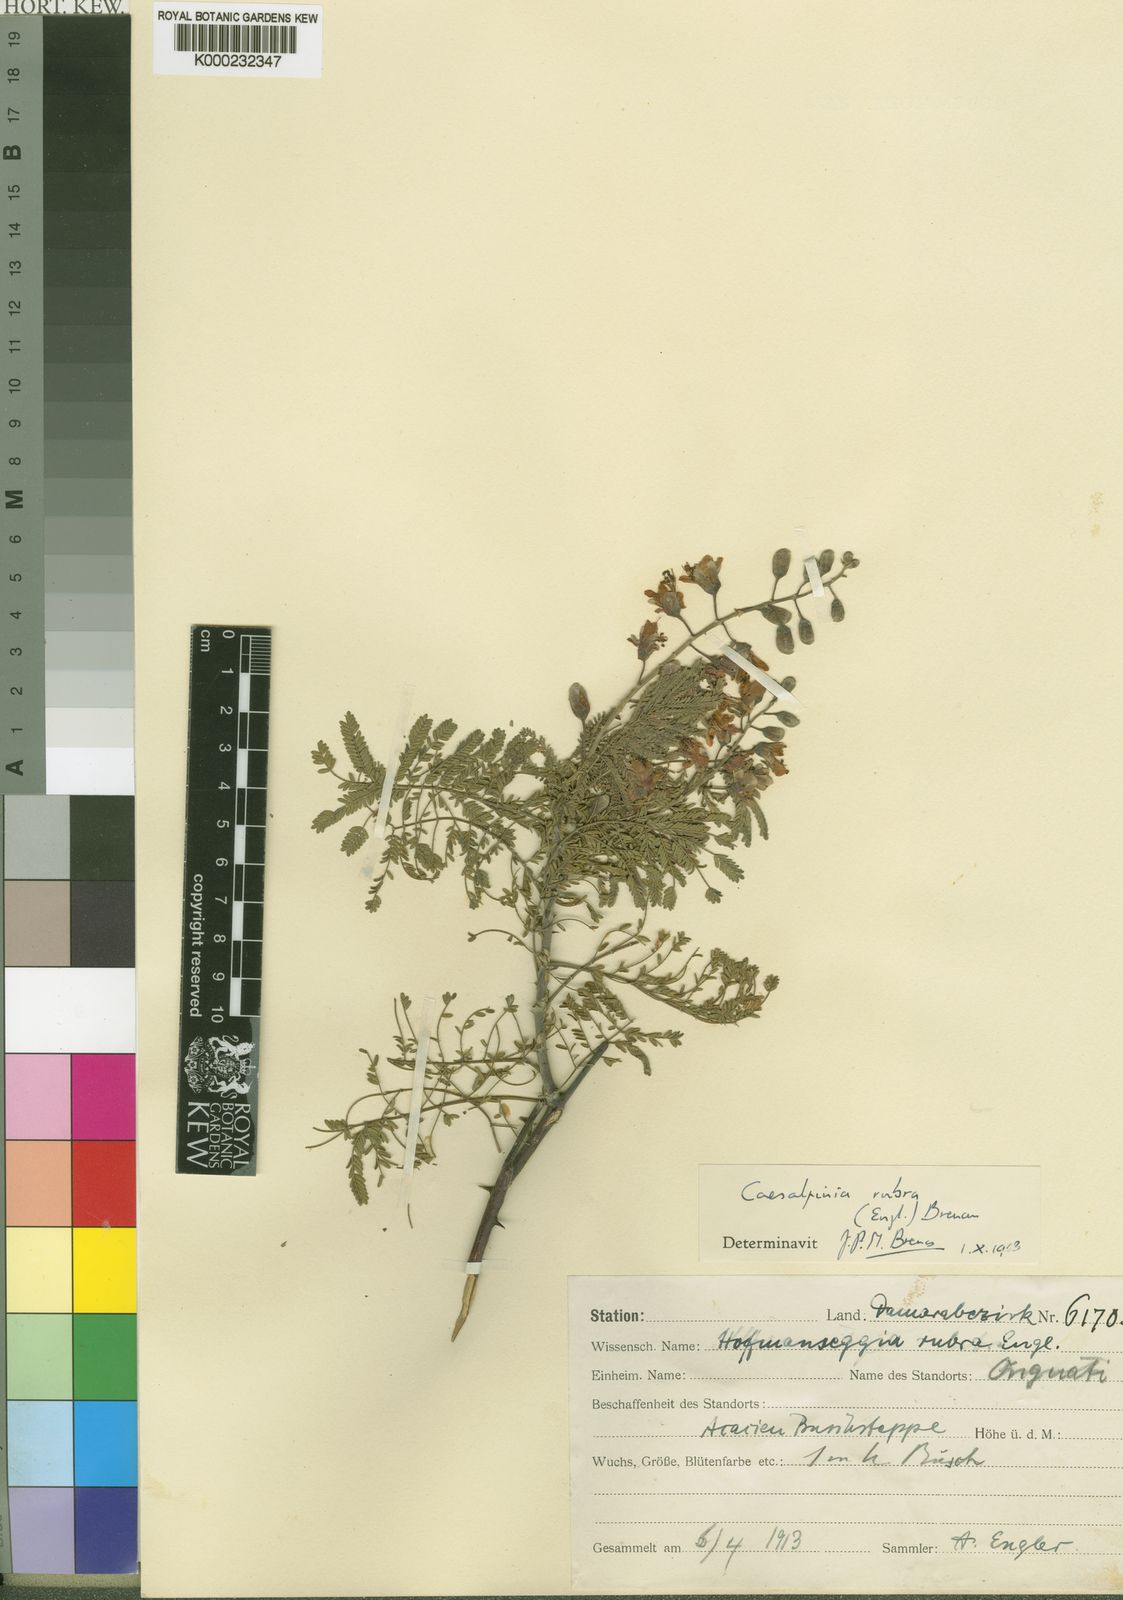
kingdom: Plantae
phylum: Tracheophyta
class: Magnoliopsida
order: Fabales
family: Fabaceae
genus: Gelrebia
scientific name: Gelrebia rubra
